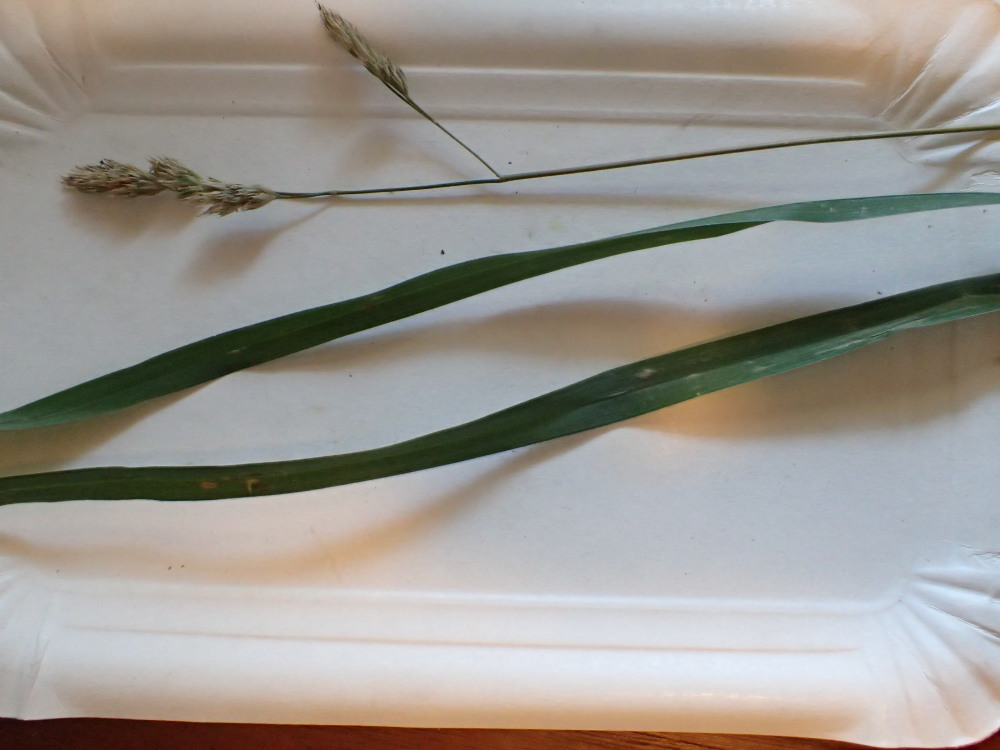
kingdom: Fungi
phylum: Ascomycota
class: Leotiomycetes
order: Helotiales
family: Erysiphaceae
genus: Blumeria
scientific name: Blumeria graminis
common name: græs-meldug
